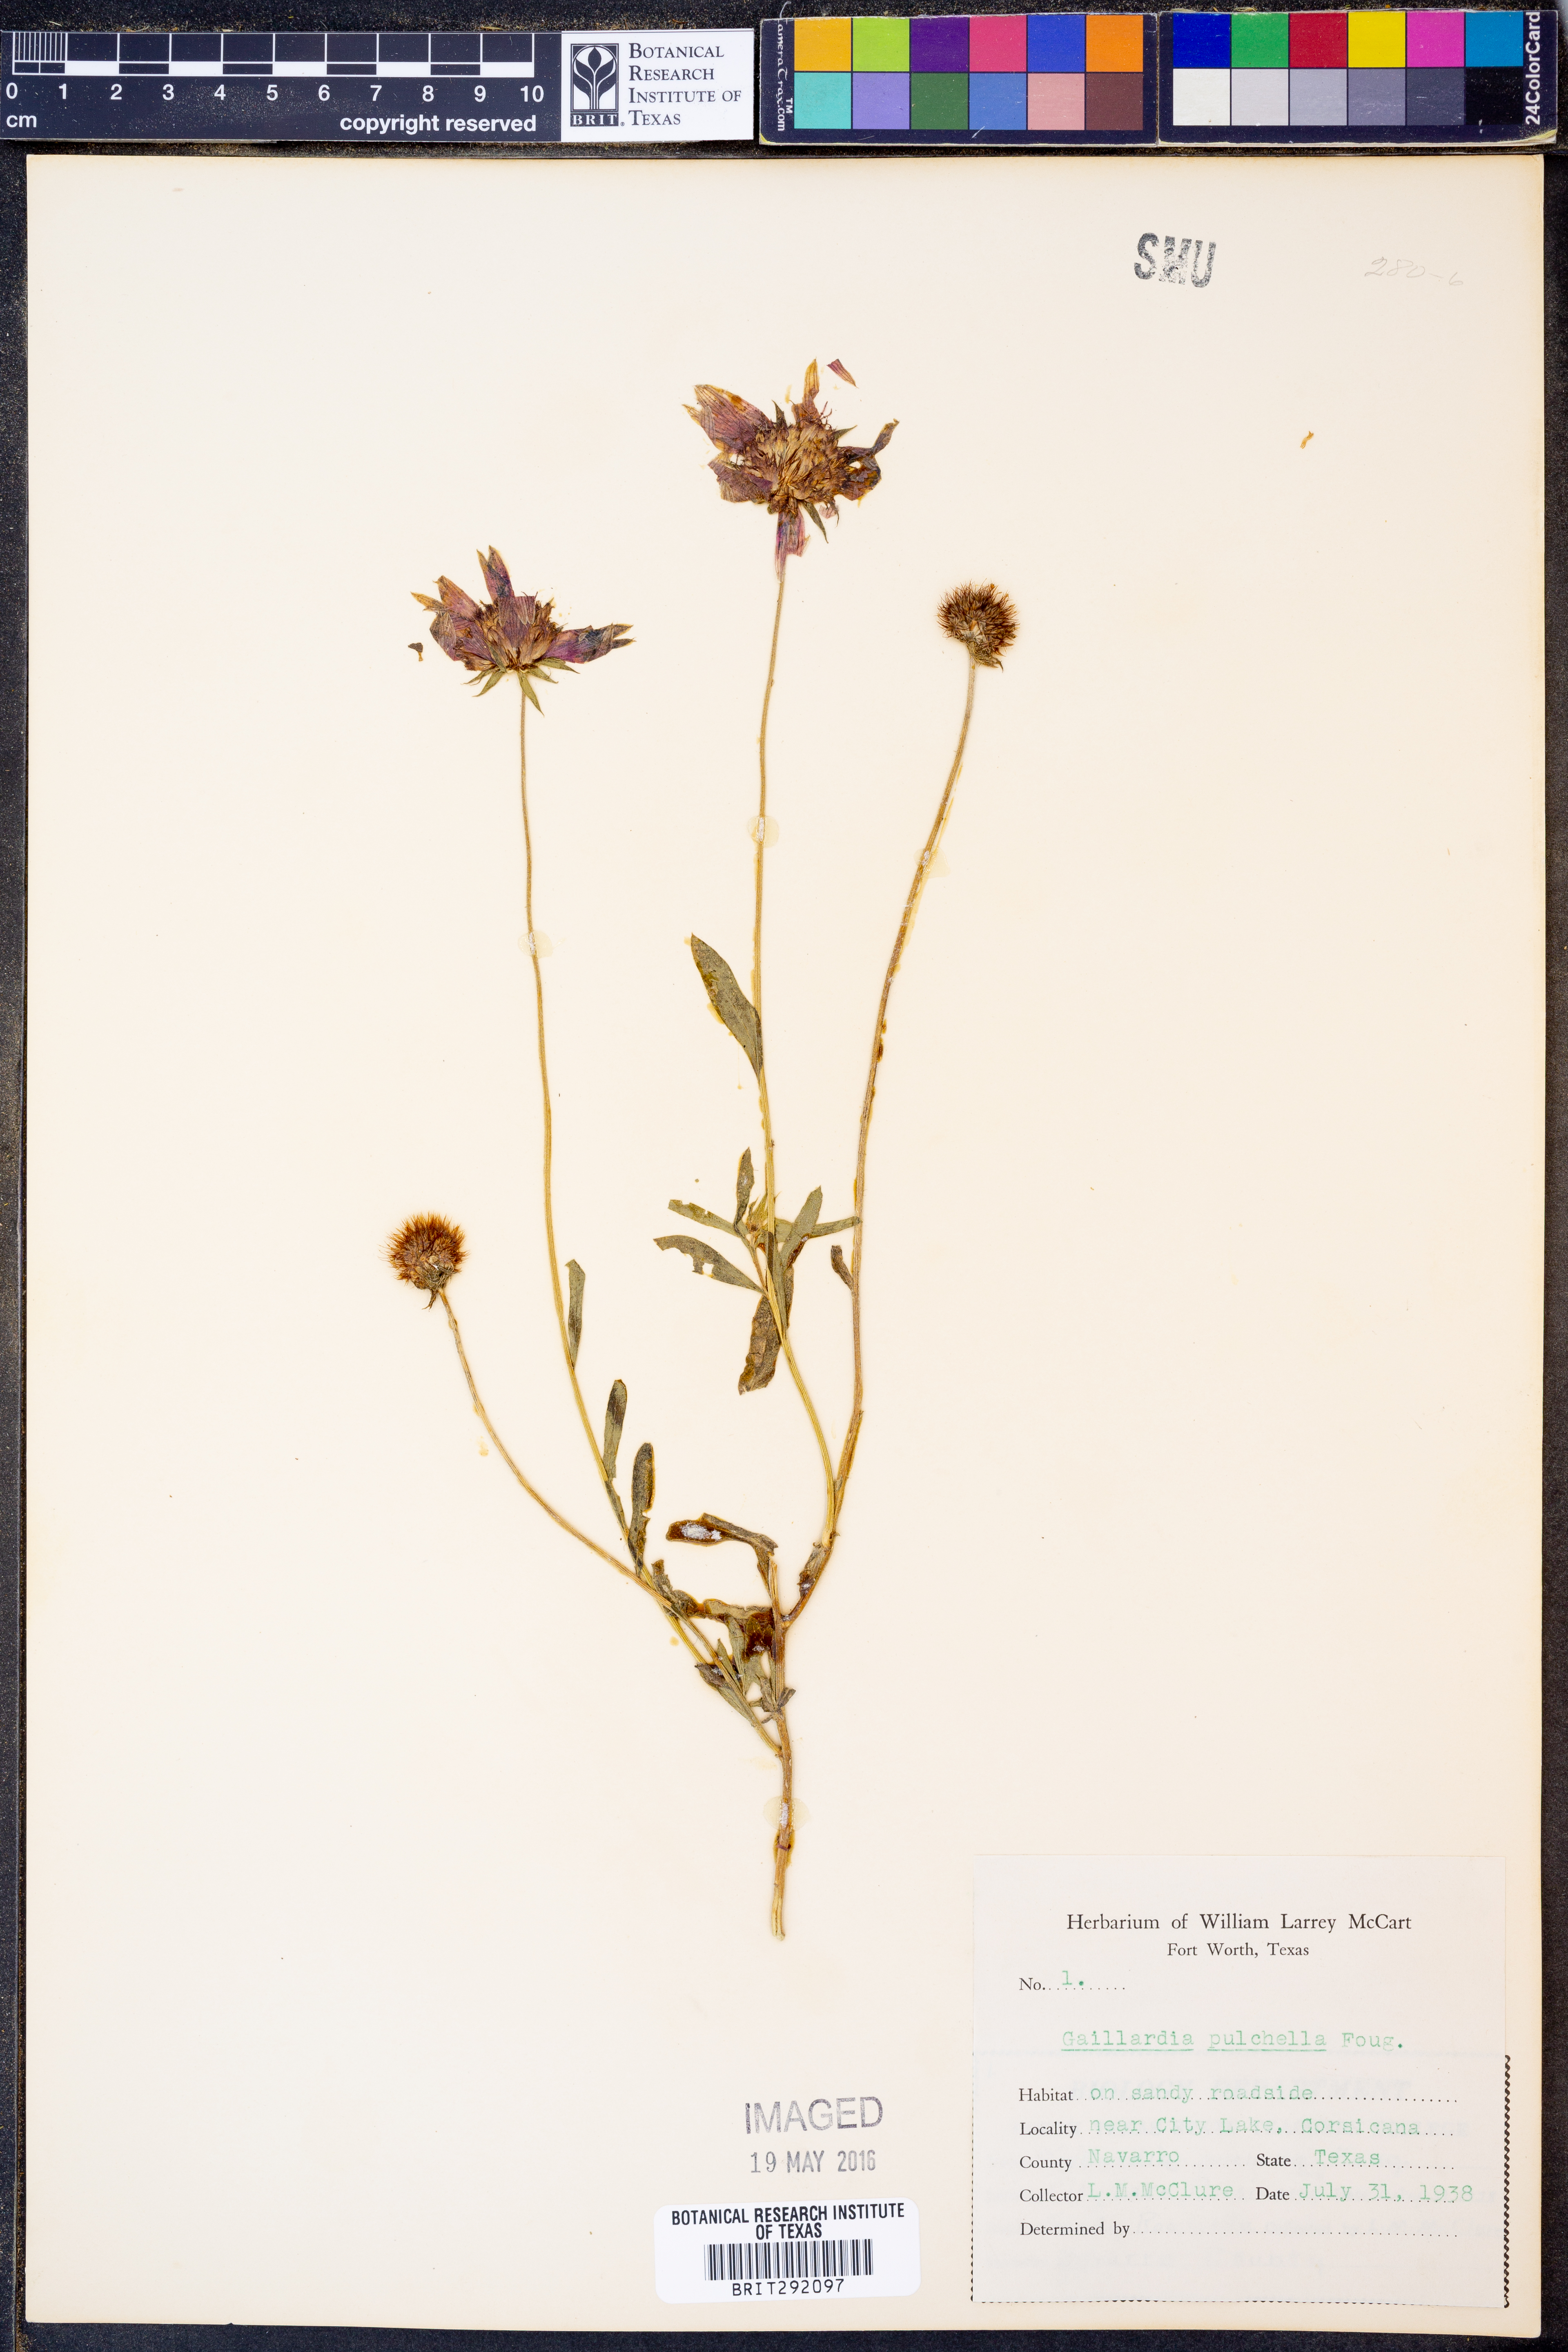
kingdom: Plantae
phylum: Tracheophyta
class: Magnoliopsida
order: Asterales
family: Asteraceae
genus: Gaillardia
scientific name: Gaillardia pulchella
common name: Firewheel
